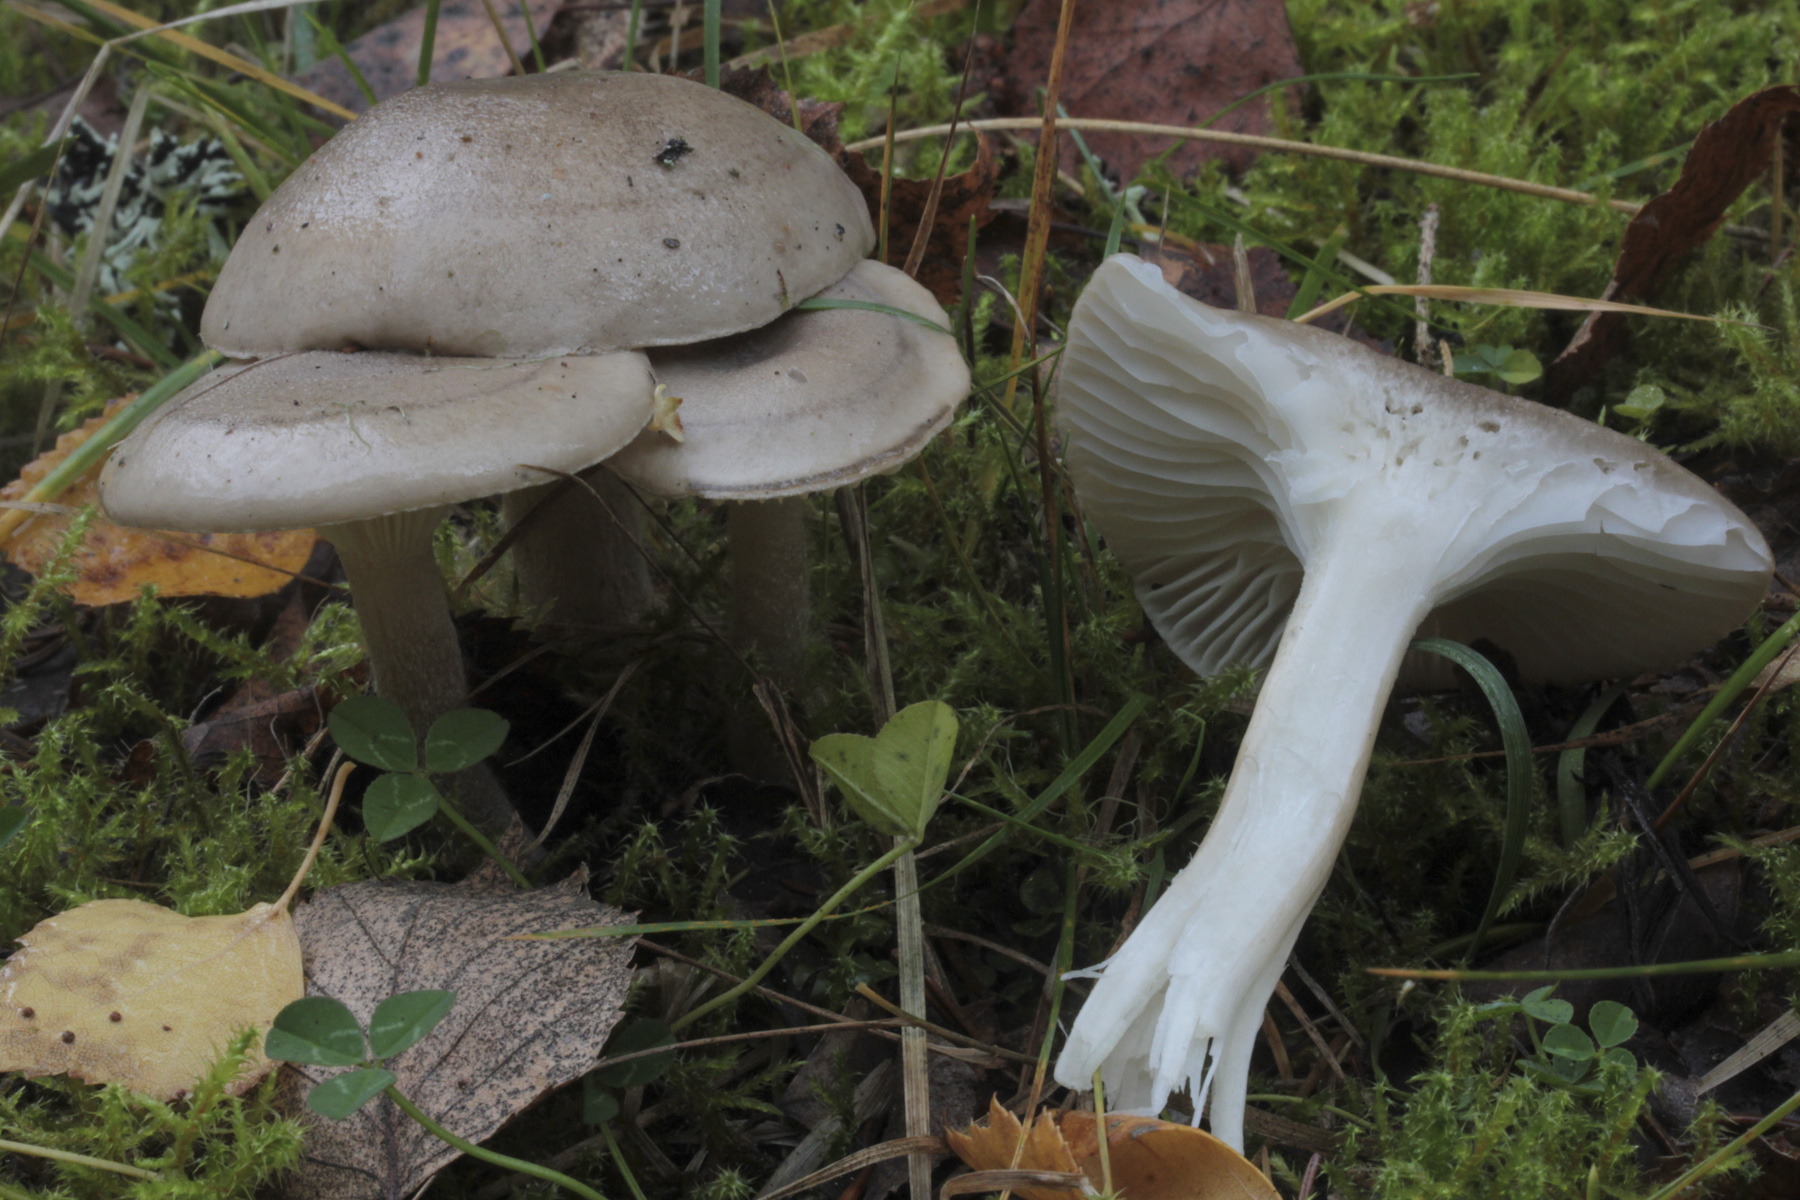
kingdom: Fungi
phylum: Basidiomycota
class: Agaricomycetes
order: Agaricales
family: Hygrophoraceae
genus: Hygrophorus
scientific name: Hygrophorus agathosmus
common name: Almond woodwax
